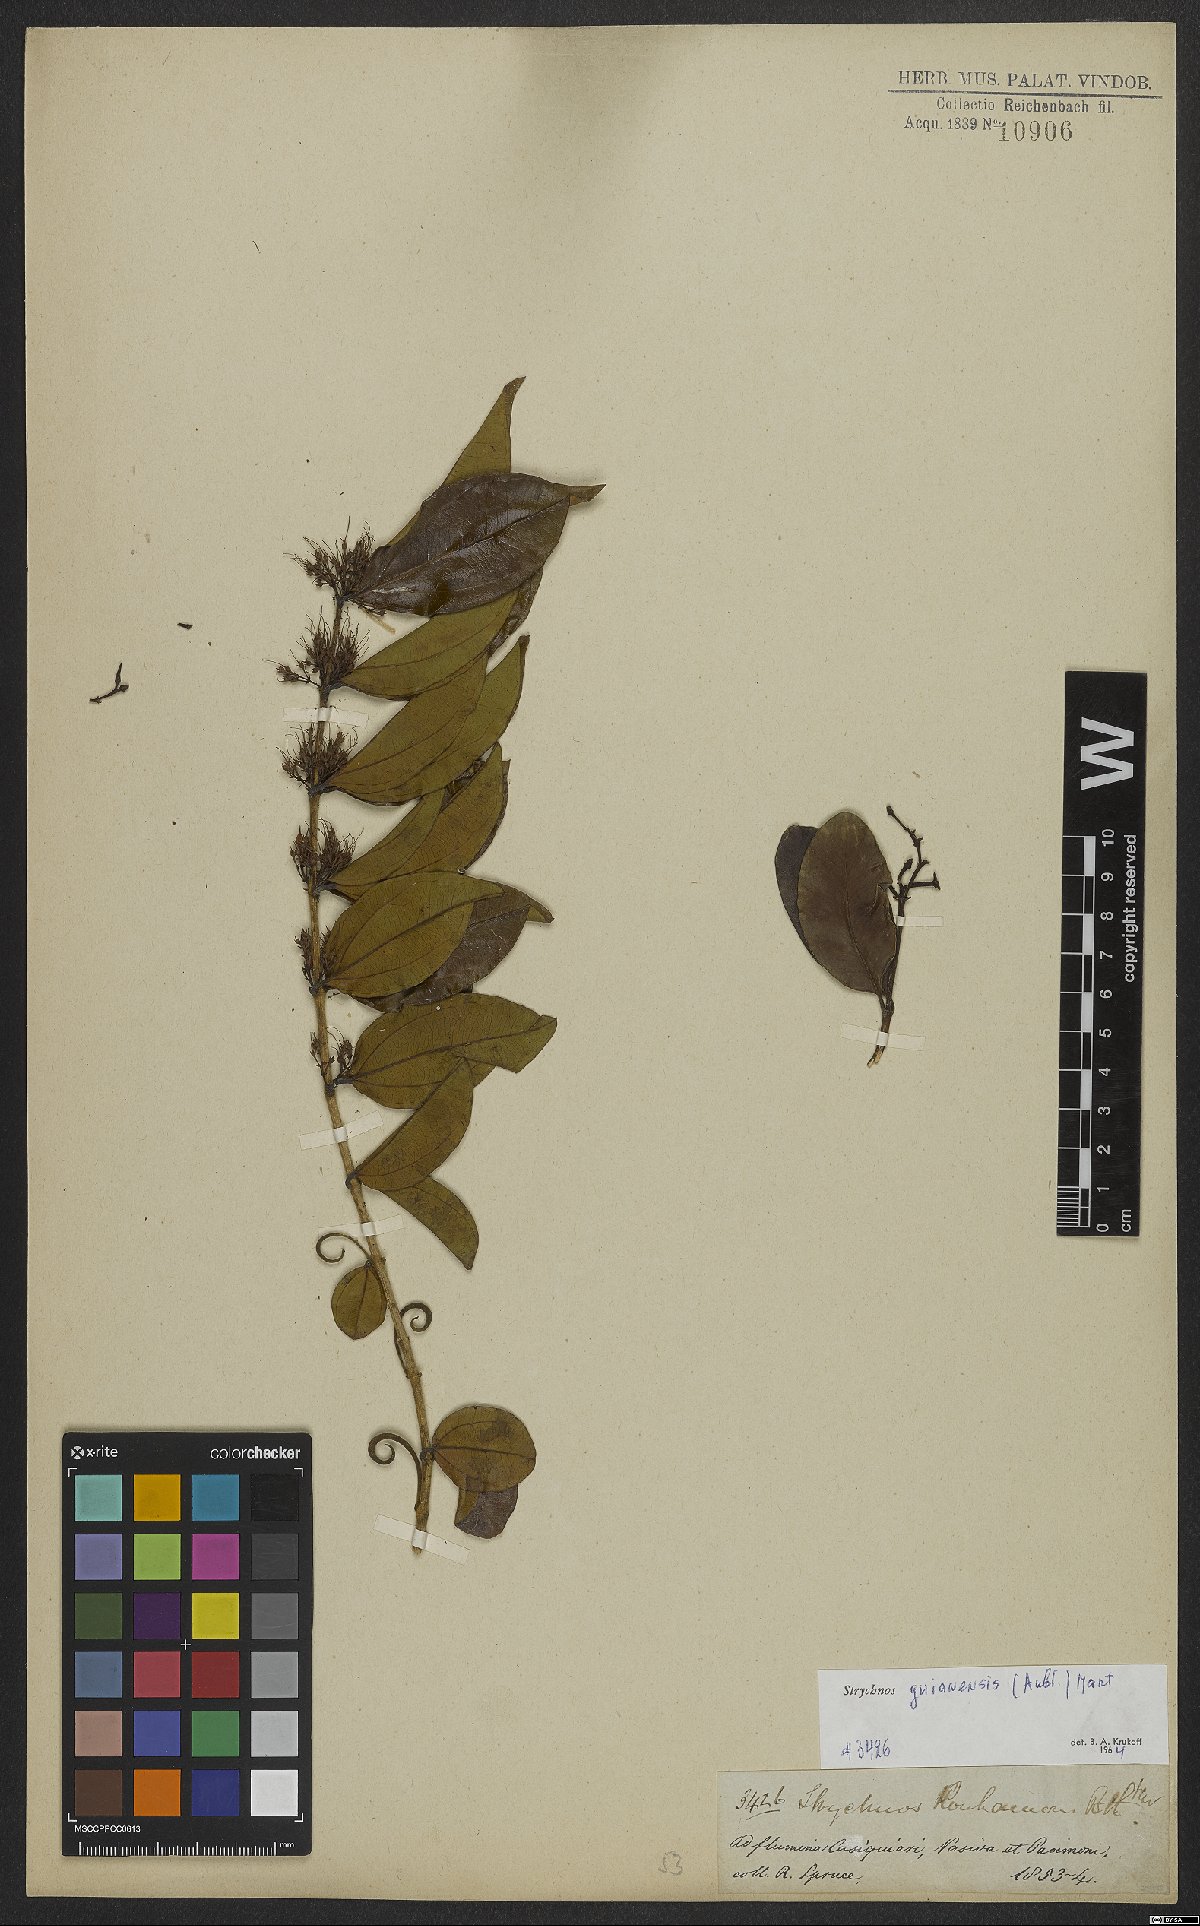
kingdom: Plantae
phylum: Tracheophyta
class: Magnoliopsida
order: Gentianales
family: Loganiaceae
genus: Strychnos
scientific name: Strychnos guianensis
